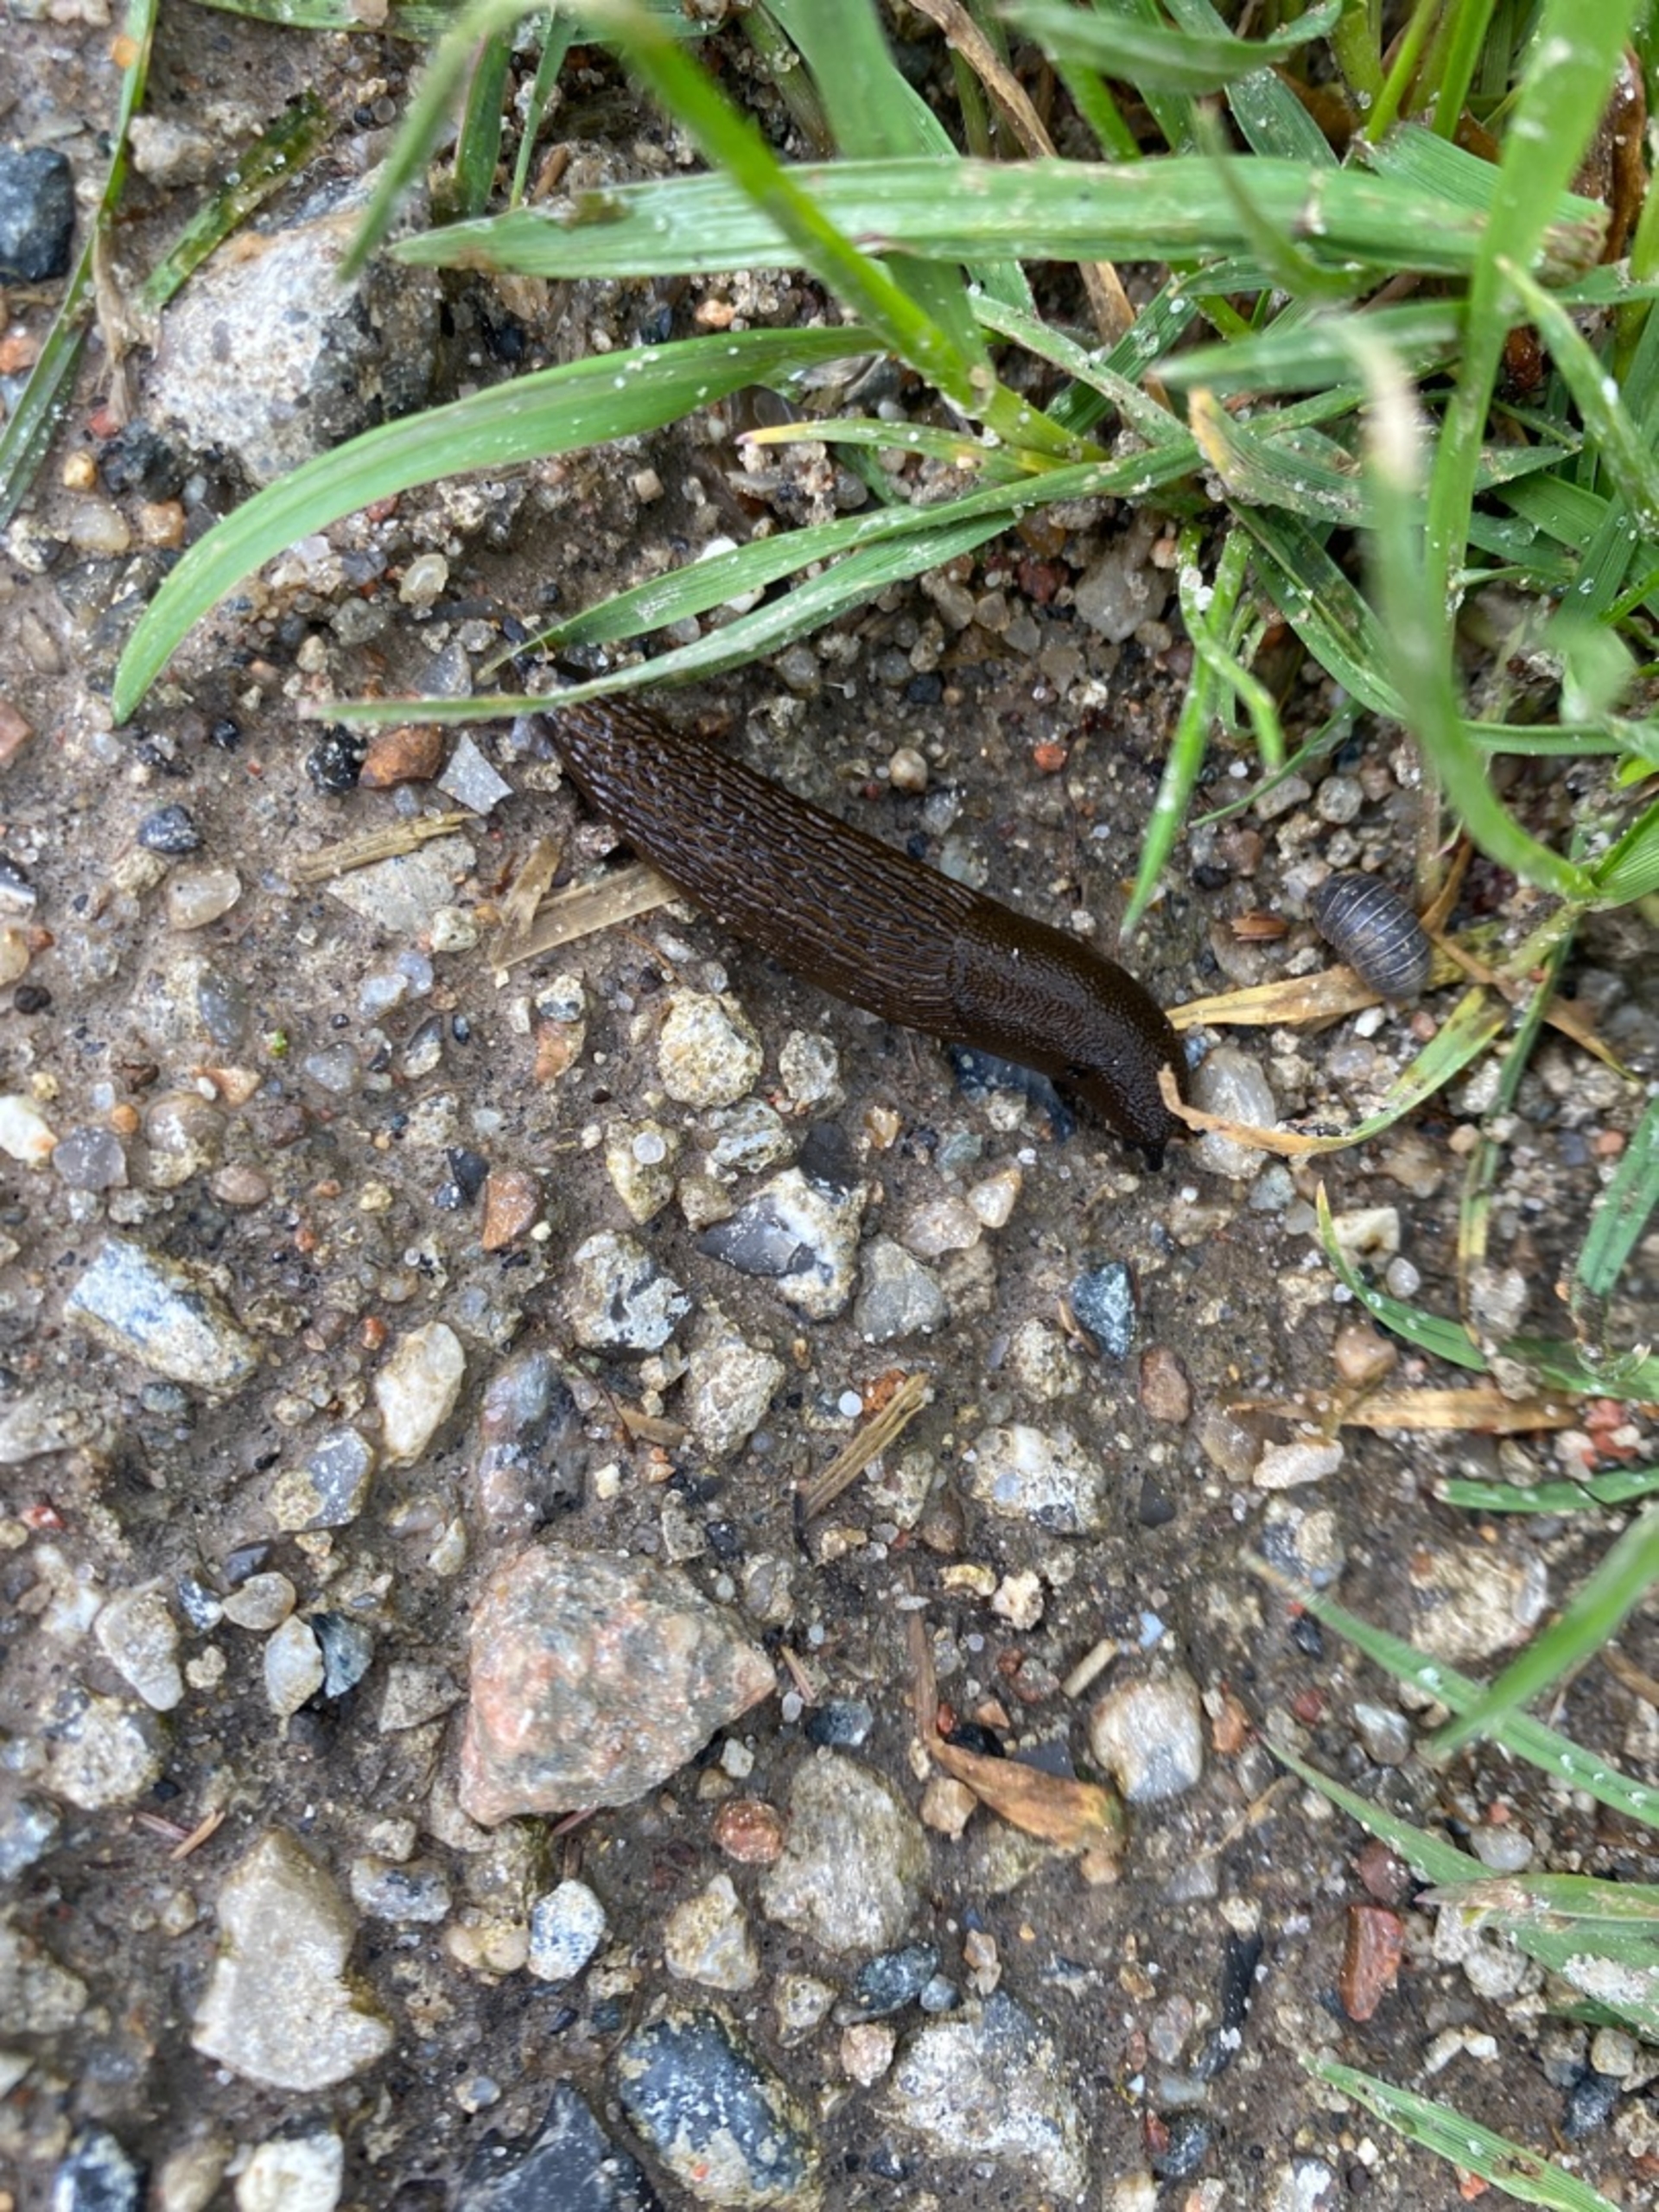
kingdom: Animalia
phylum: Mollusca
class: Gastropoda
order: Stylommatophora
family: Arionidae
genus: Arion
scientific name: Arion vulgaris
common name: Iberisk skovsnegl
